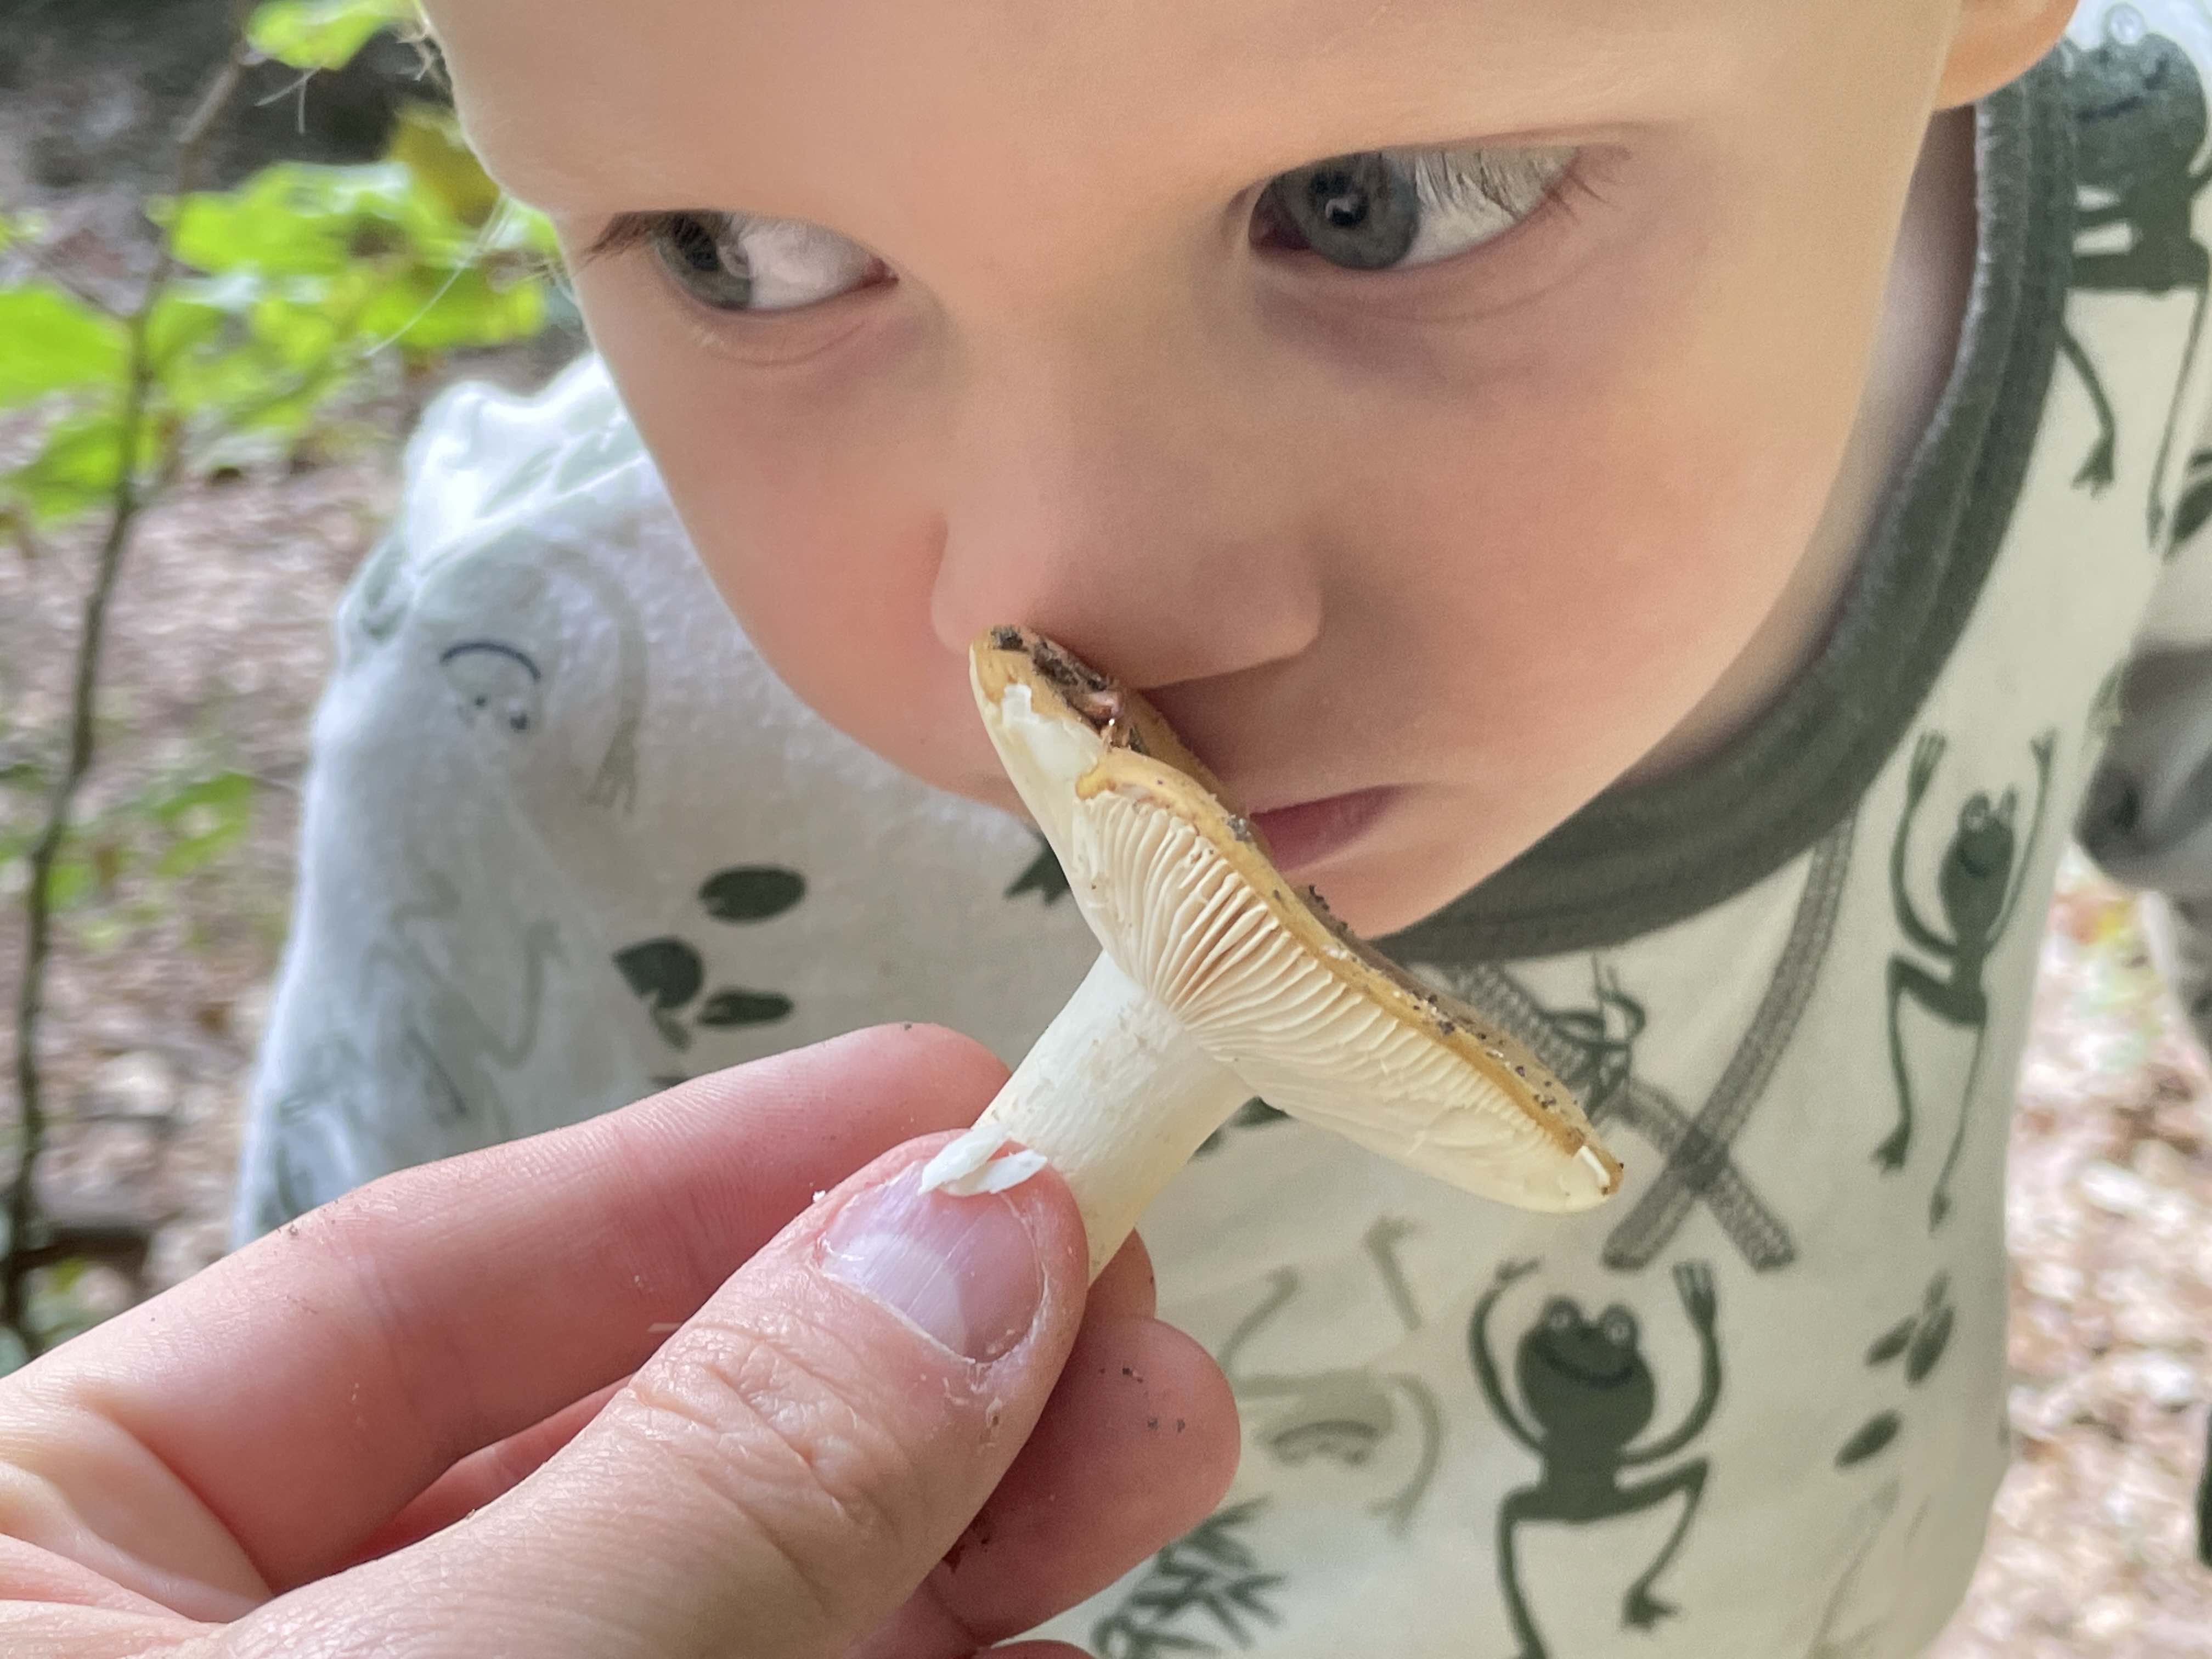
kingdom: Fungi
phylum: Basidiomycota
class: Agaricomycetes
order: Russulales
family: Russulaceae
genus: Russula
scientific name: Russula ochroleuca
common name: okkergul skørhat
